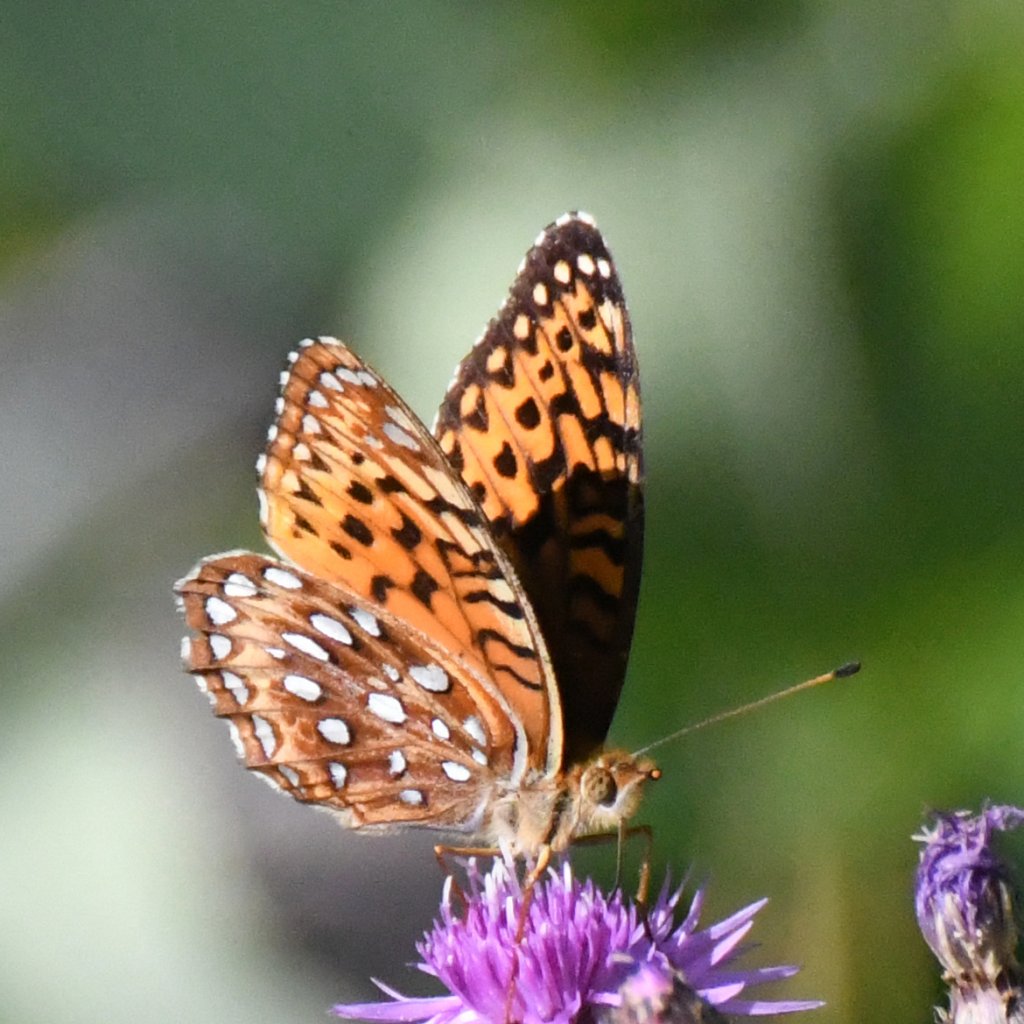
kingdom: Animalia
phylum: Arthropoda
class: Insecta
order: Lepidoptera
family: Nymphalidae
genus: Speyeria
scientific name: Speyeria aphrodite
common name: Aphrodite Fritillary
